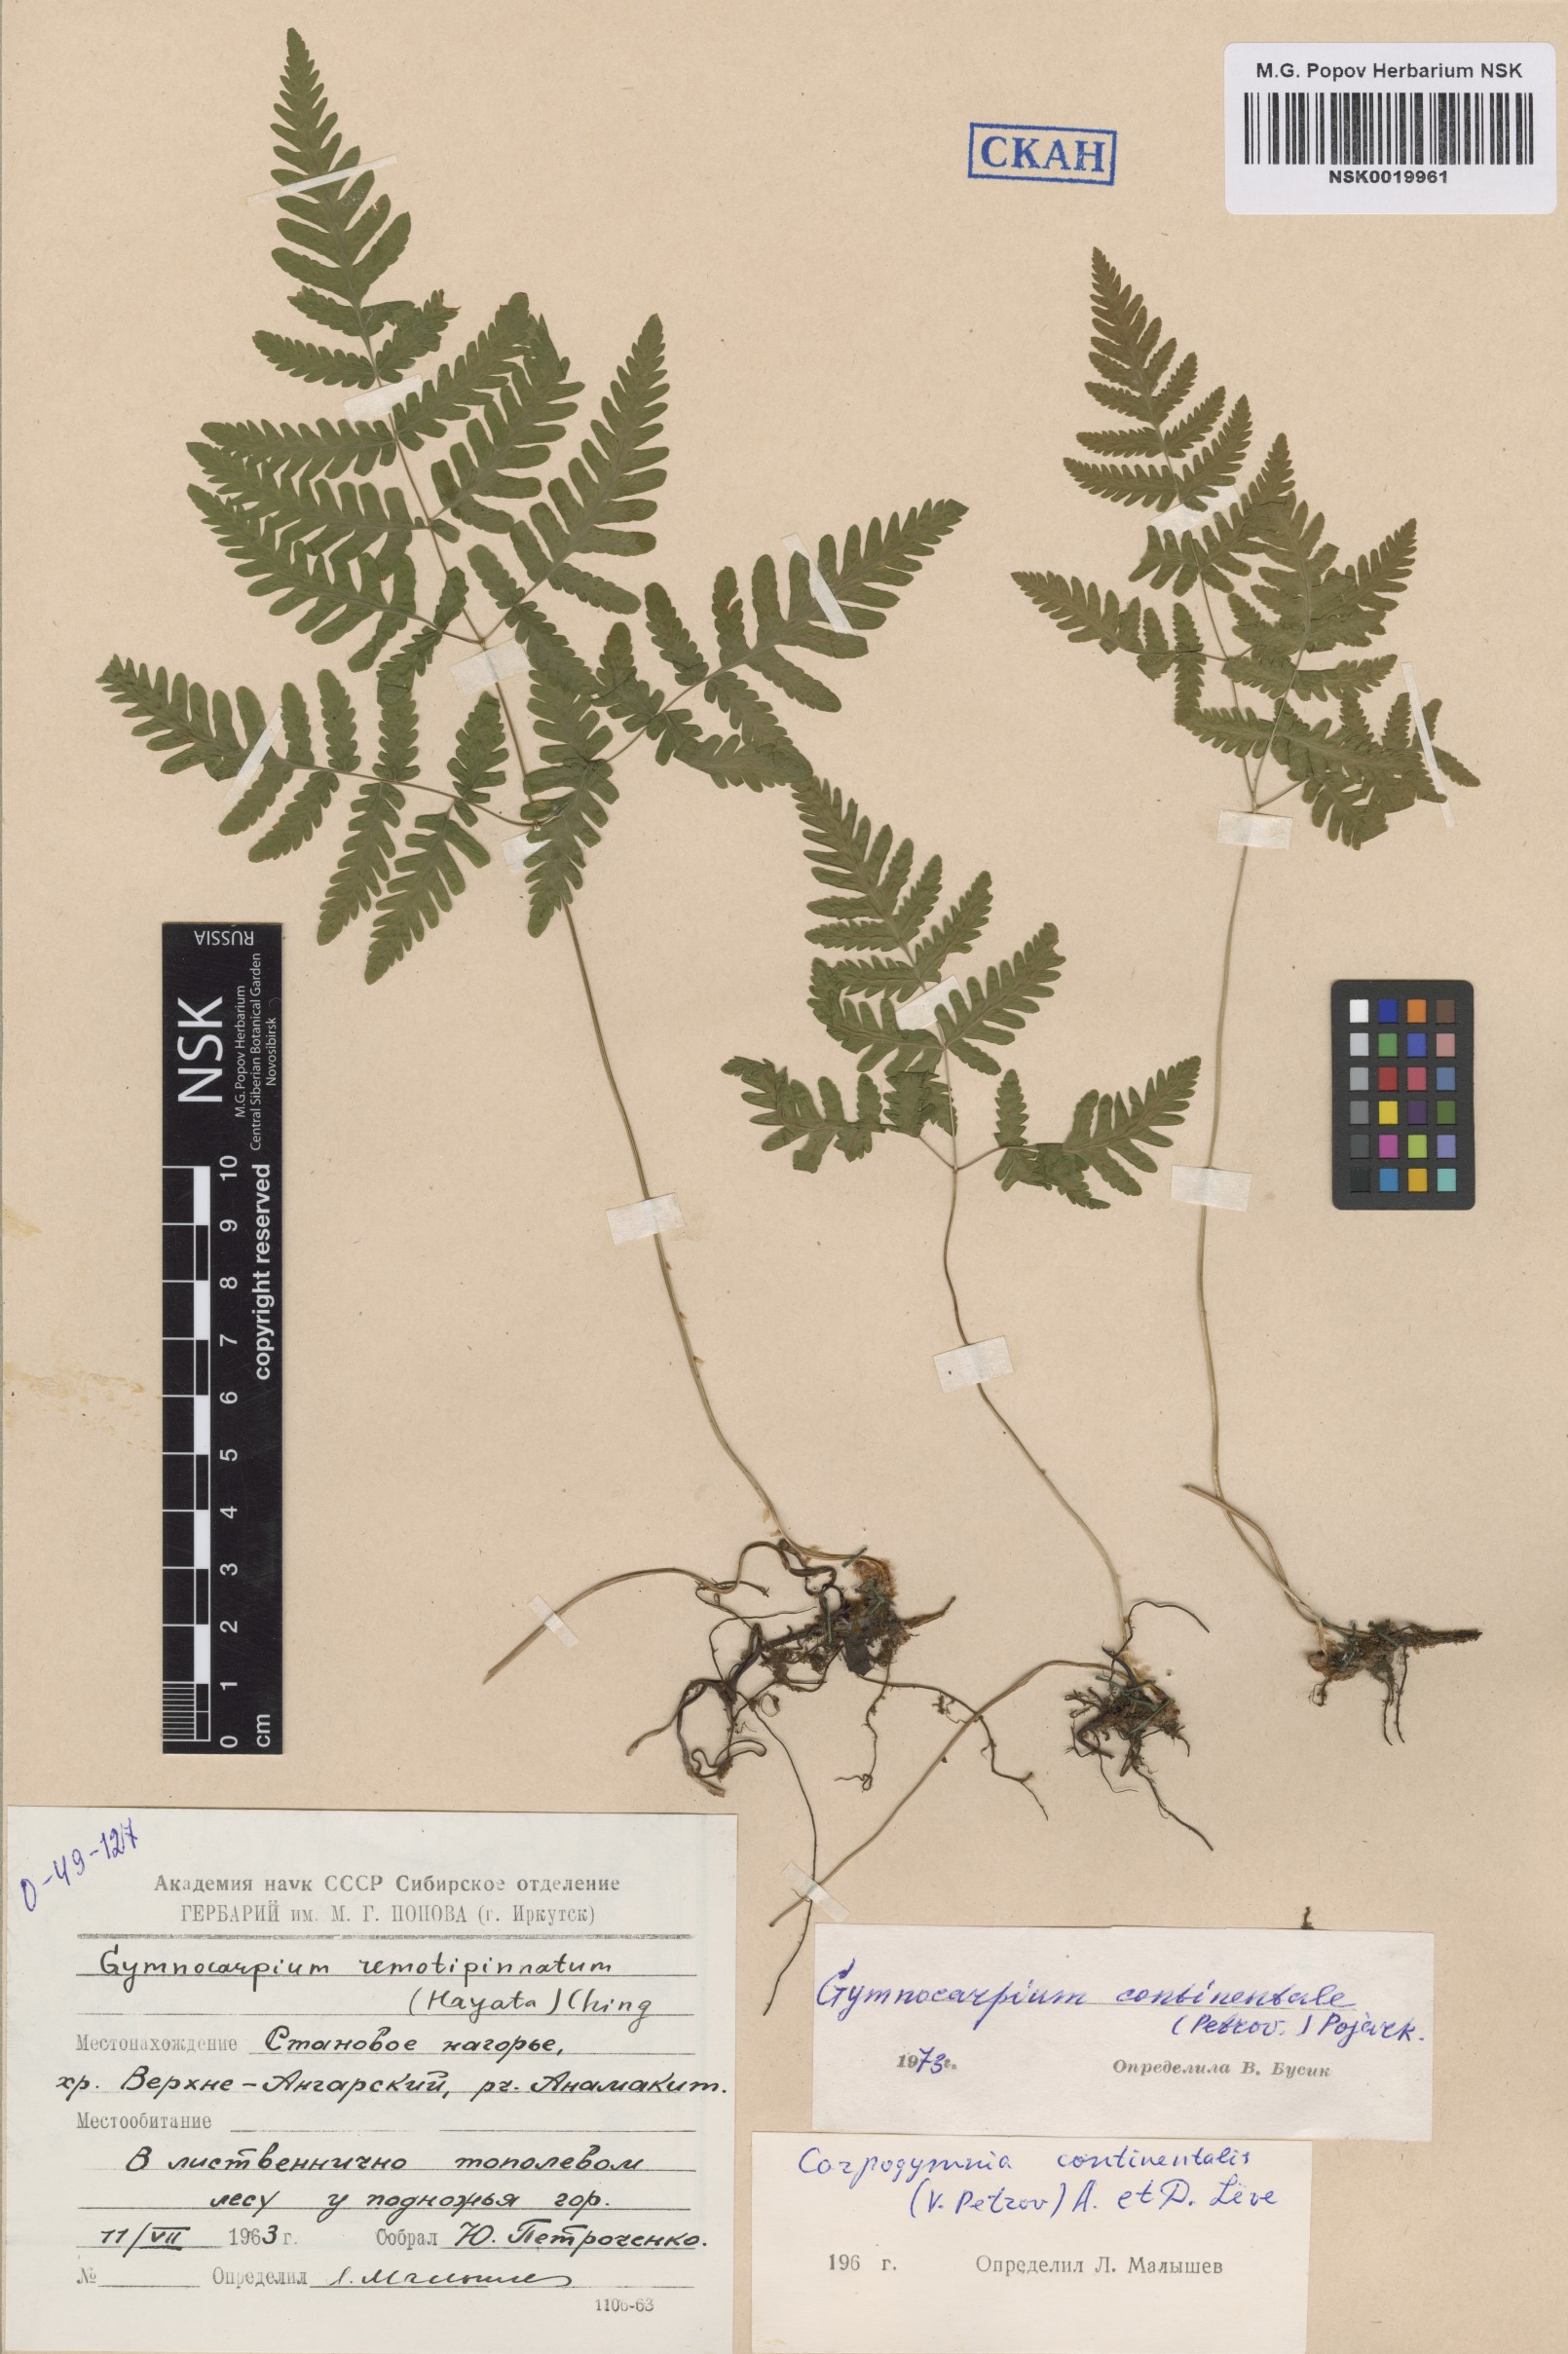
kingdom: Plantae
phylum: Tracheophyta
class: Polypodiopsida
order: Polypodiales
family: Cystopteridaceae
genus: Gymnocarpium
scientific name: Gymnocarpium continentale
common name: Asian oak fern
